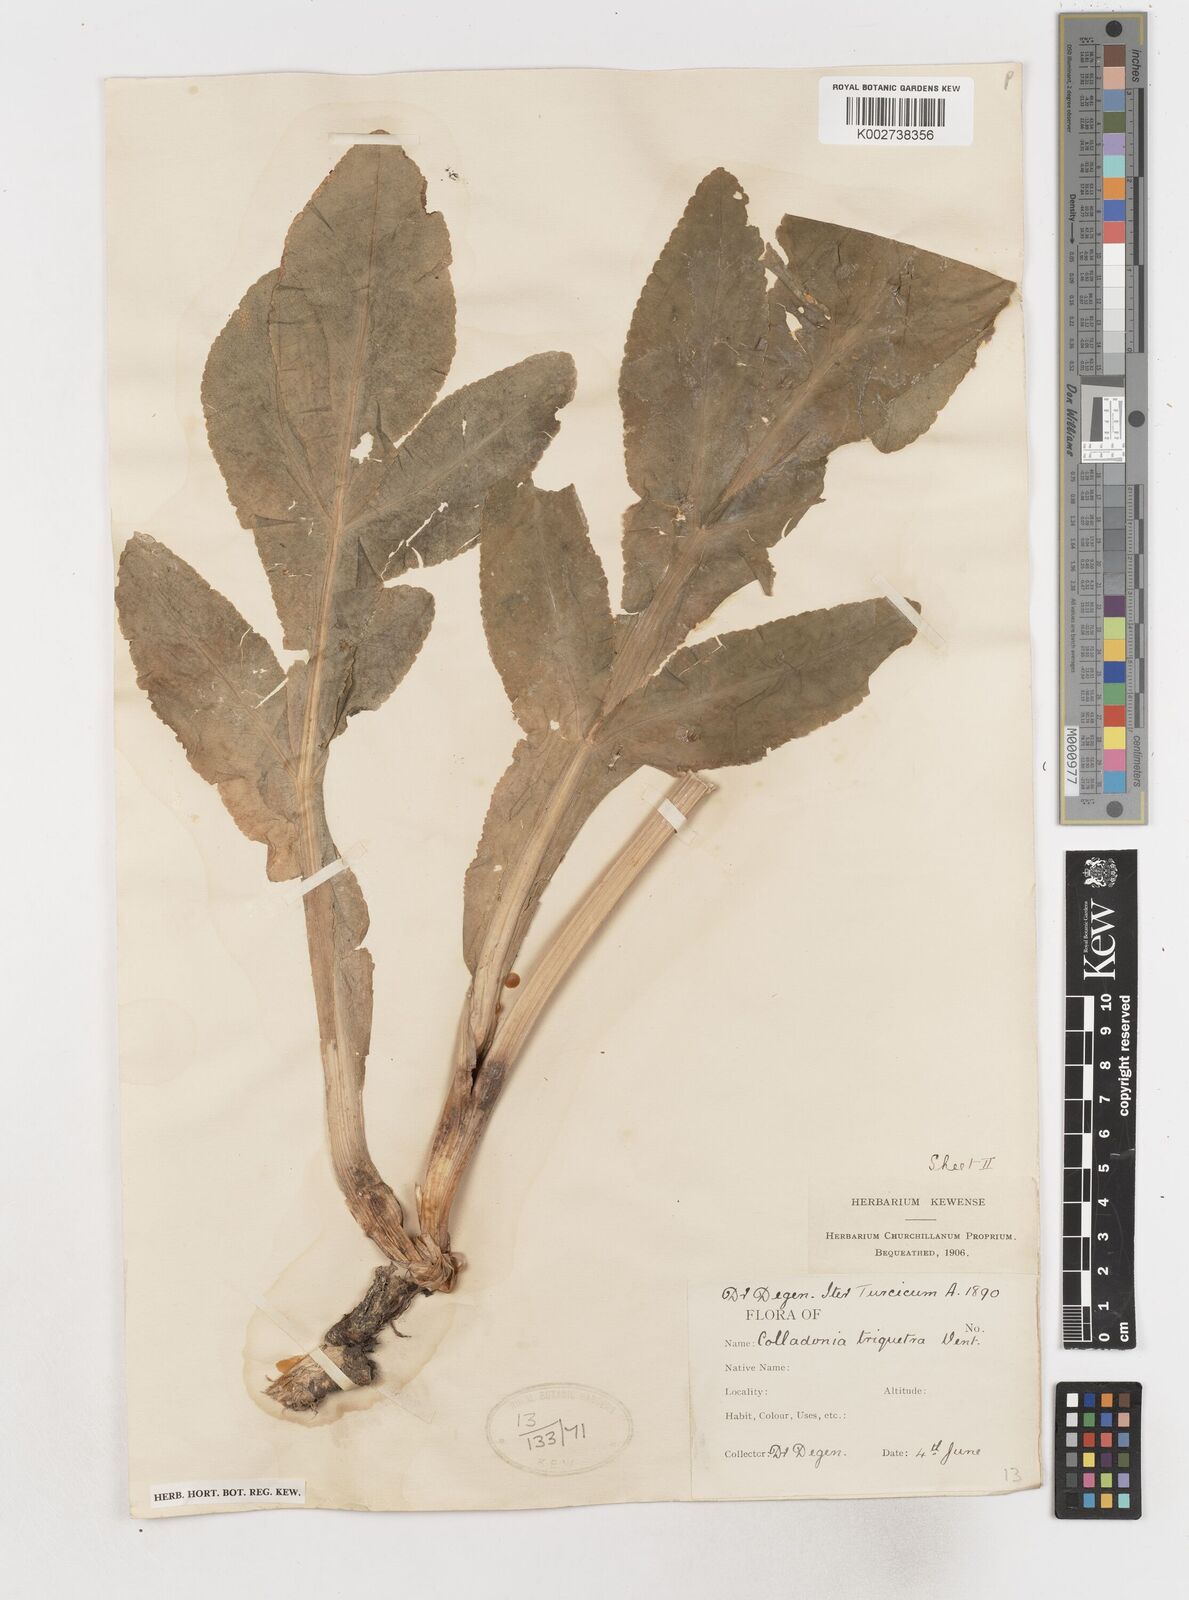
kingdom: Plantae
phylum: Tracheophyta
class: Magnoliopsida
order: Apiales
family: Apiaceae
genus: Heptaptera
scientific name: Heptaptera triquetra
